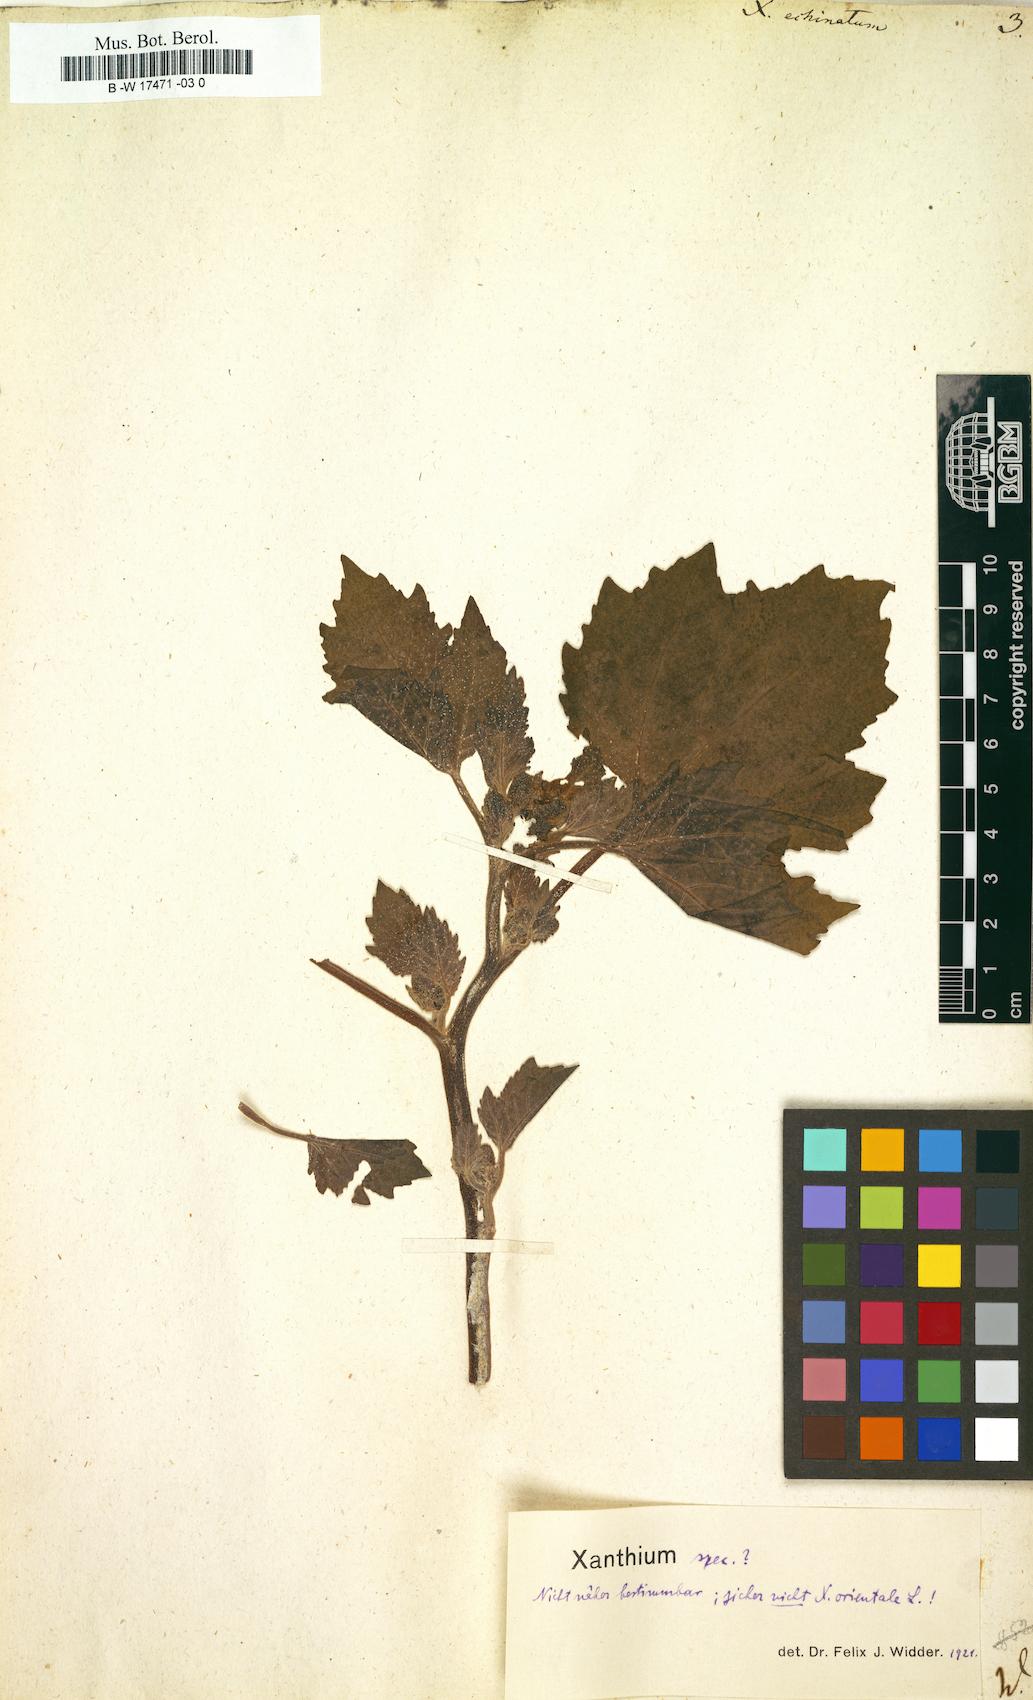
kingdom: Plantae
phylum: Tracheophyta
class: Magnoliopsida
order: Asterales
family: Asteraceae
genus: Xanthium
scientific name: Xanthium orientale
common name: Californian burr
